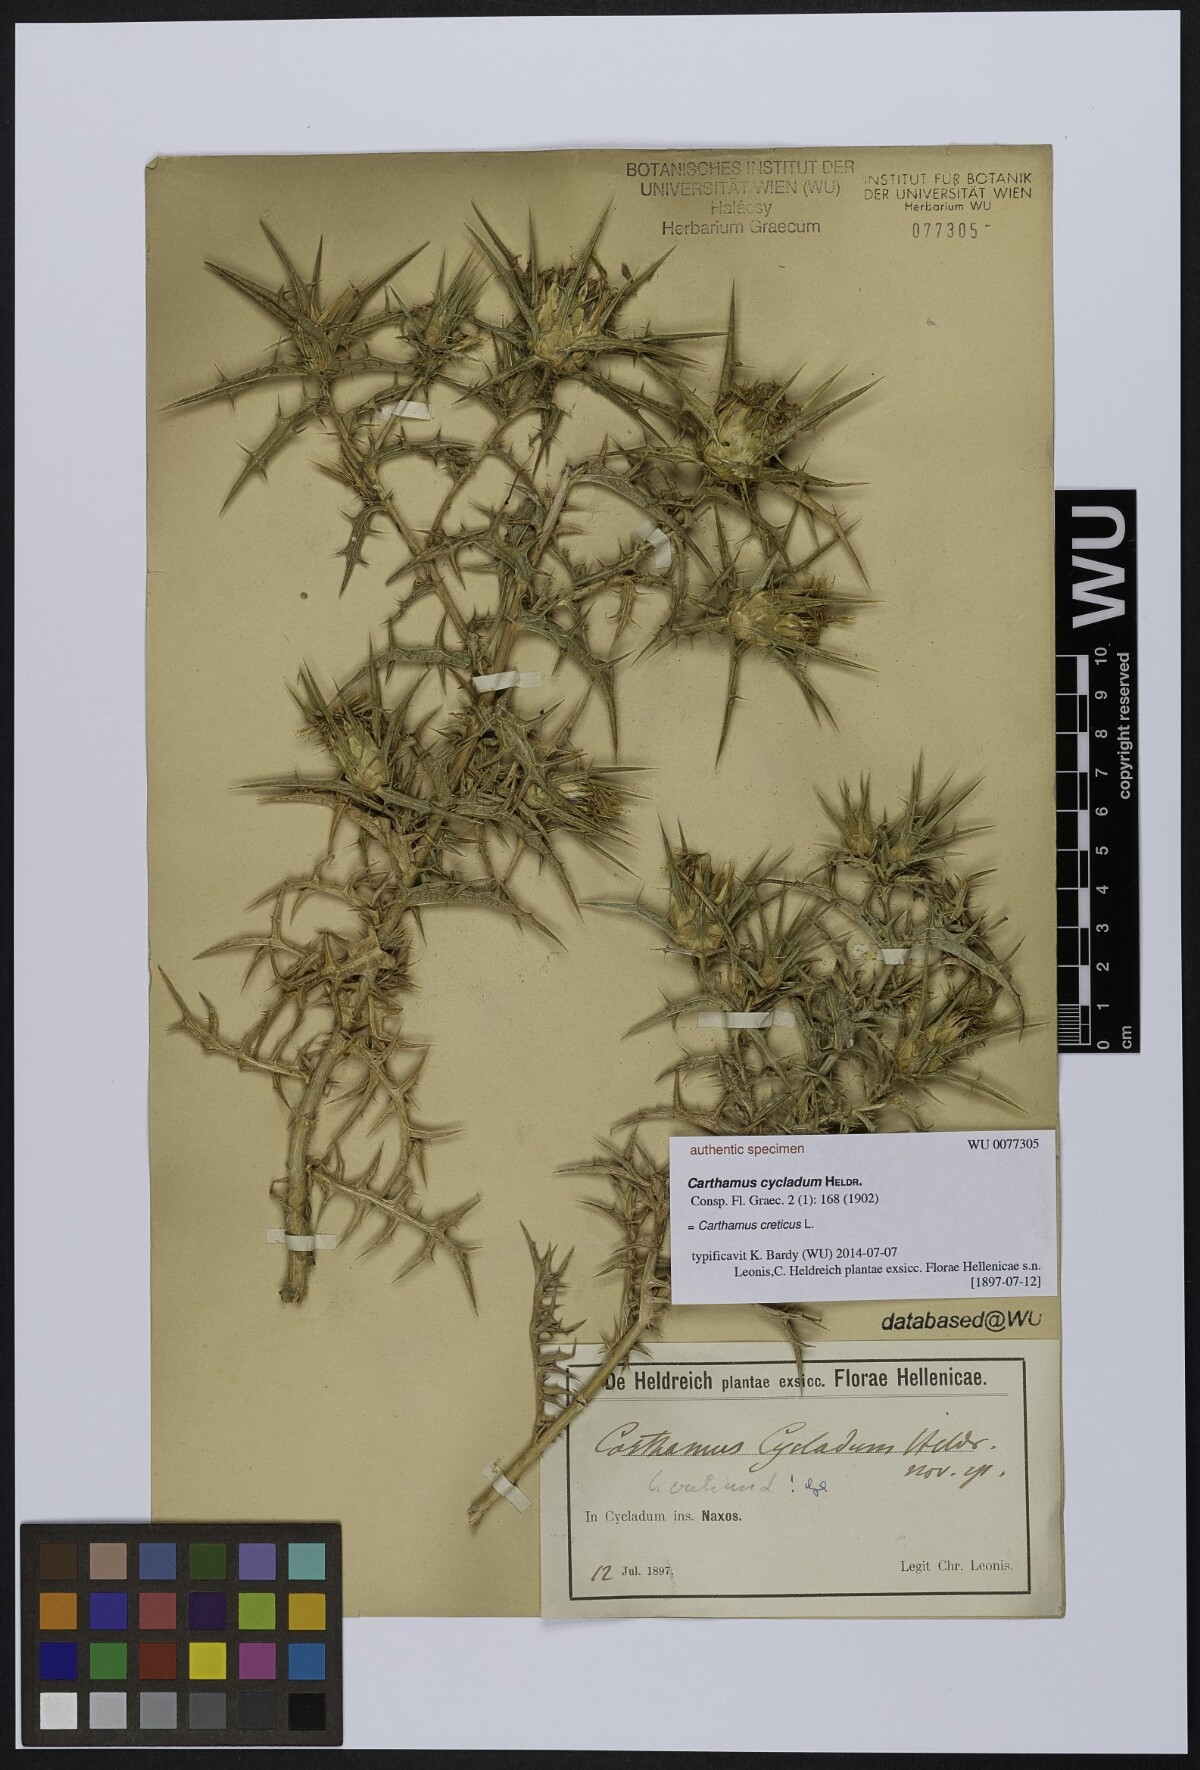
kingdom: Plantae
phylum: Tracheophyta
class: Magnoliopsida
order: Asterales
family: Asteraceae
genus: Carthamus
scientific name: Carthamus
